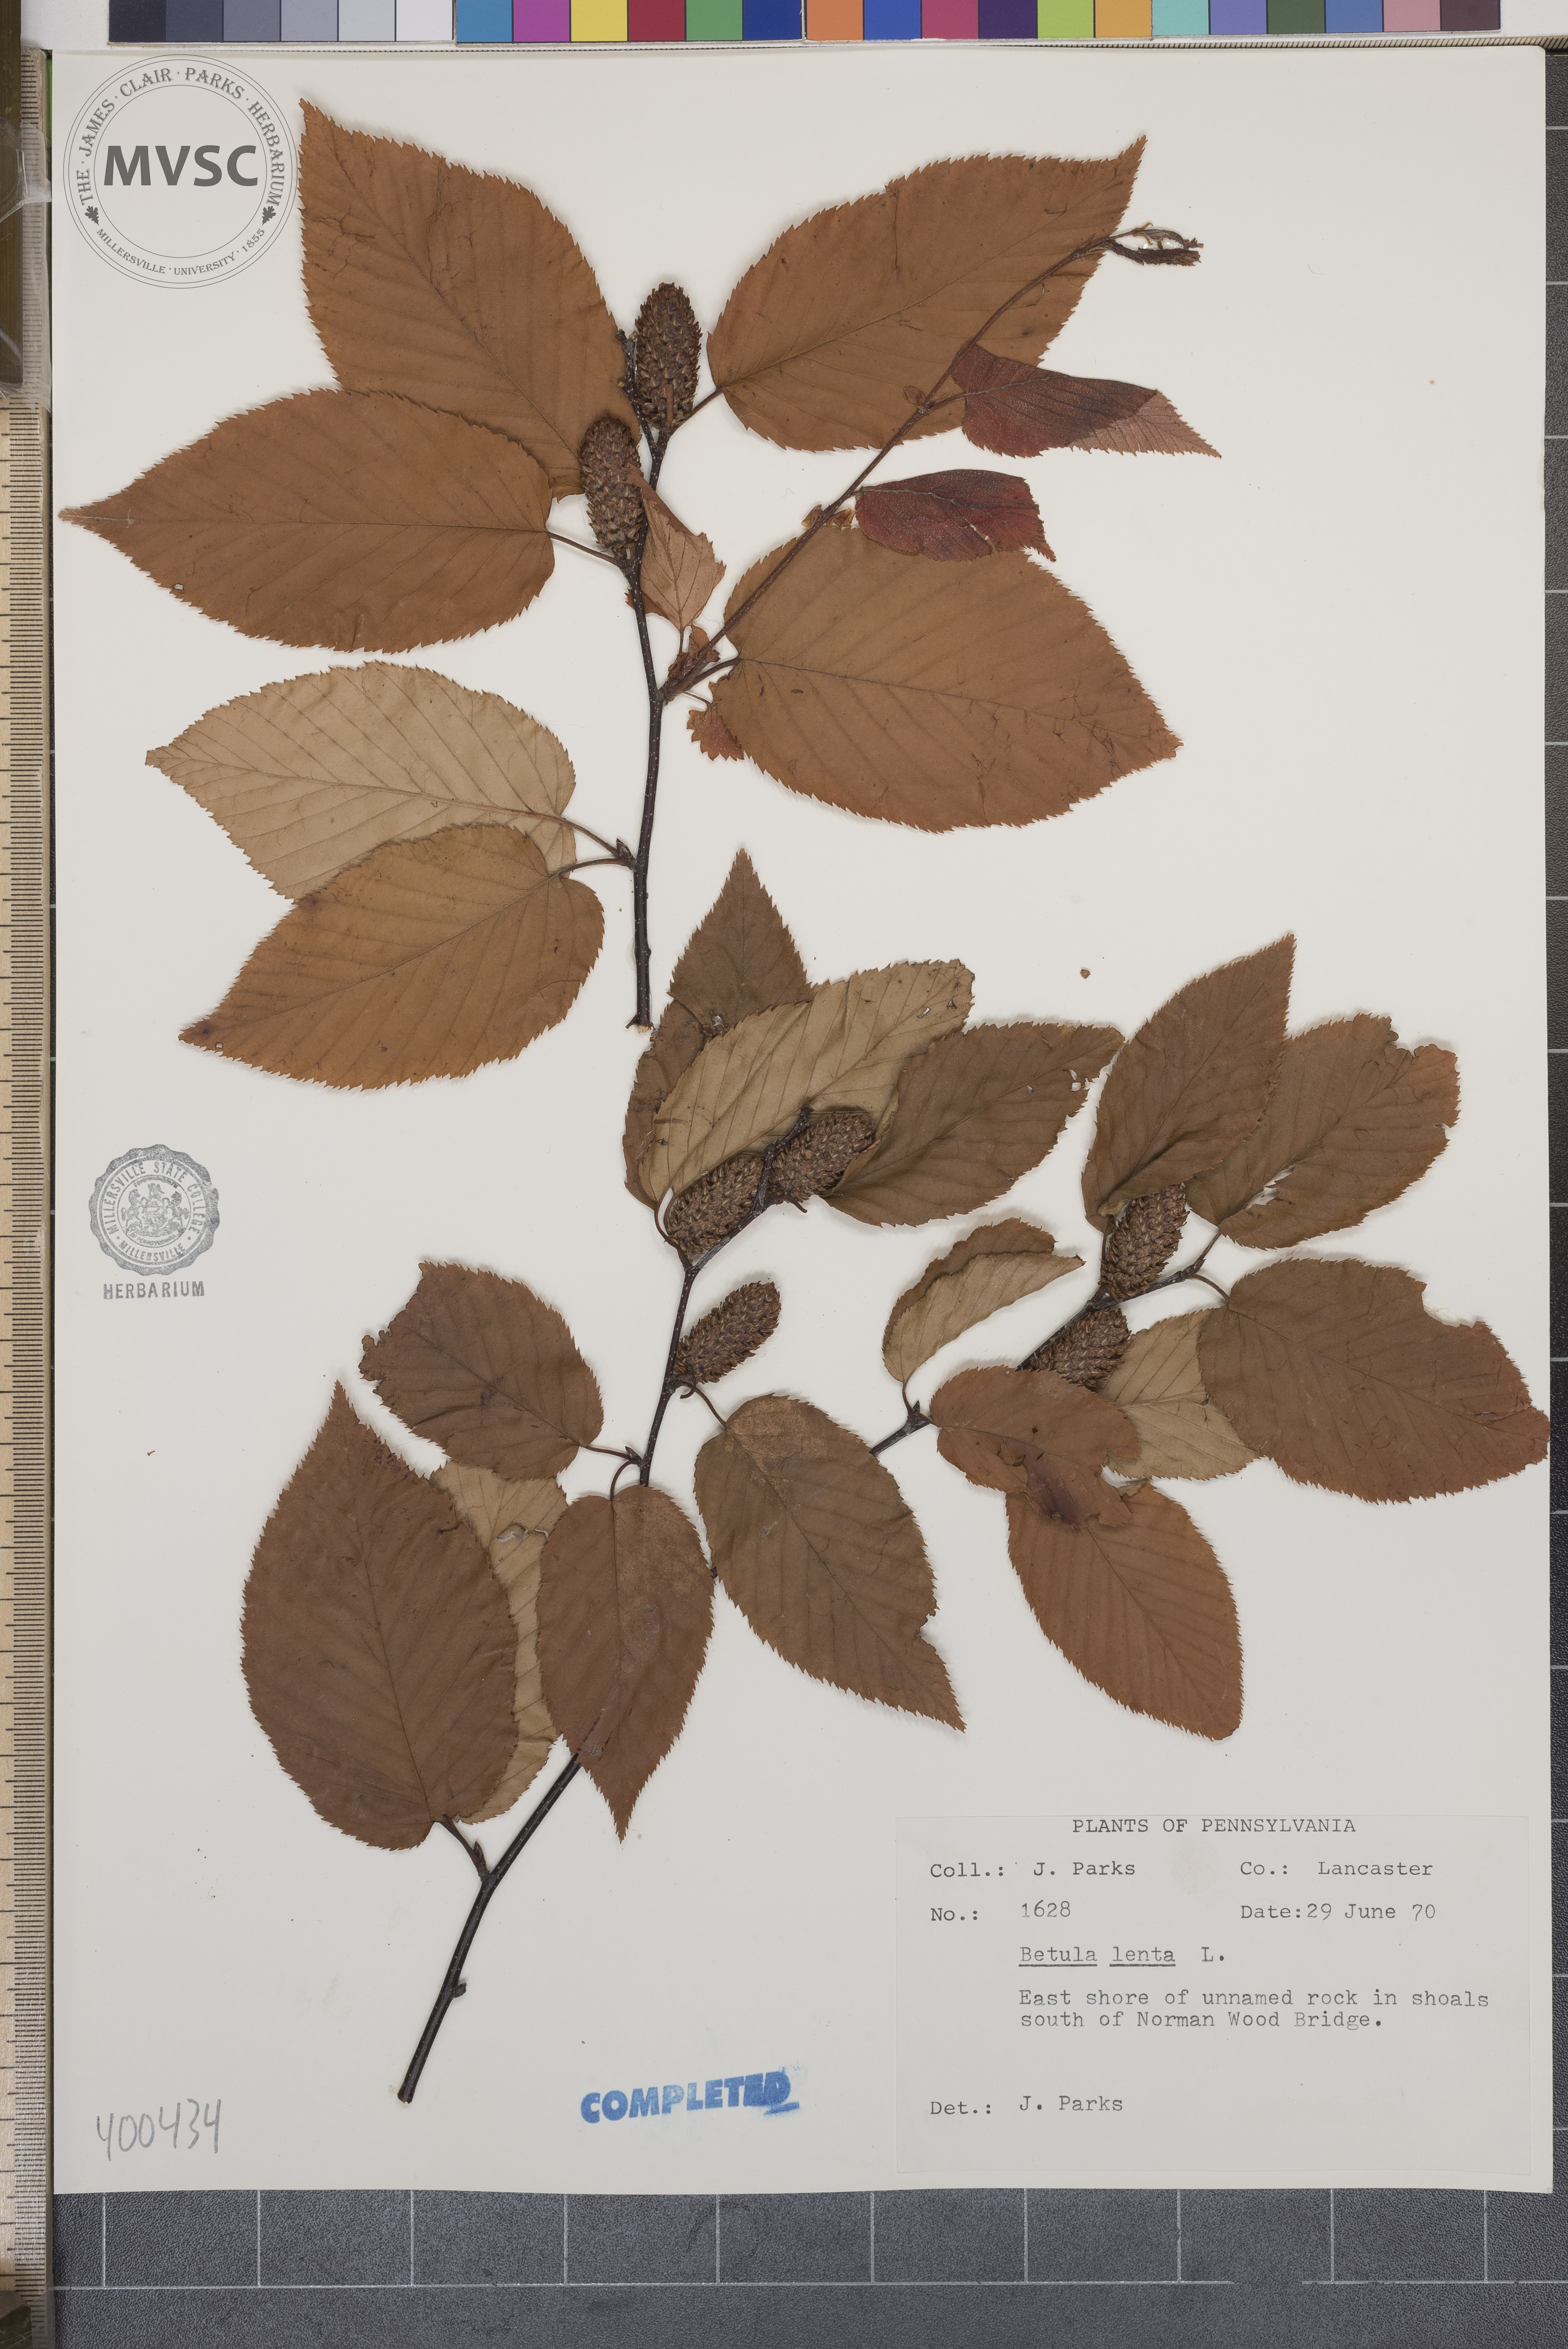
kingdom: Plantae
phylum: Tracheophyta
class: Magnoliopsida
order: Fagales
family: Betulaceae
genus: Betula
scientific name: Betula lenta
